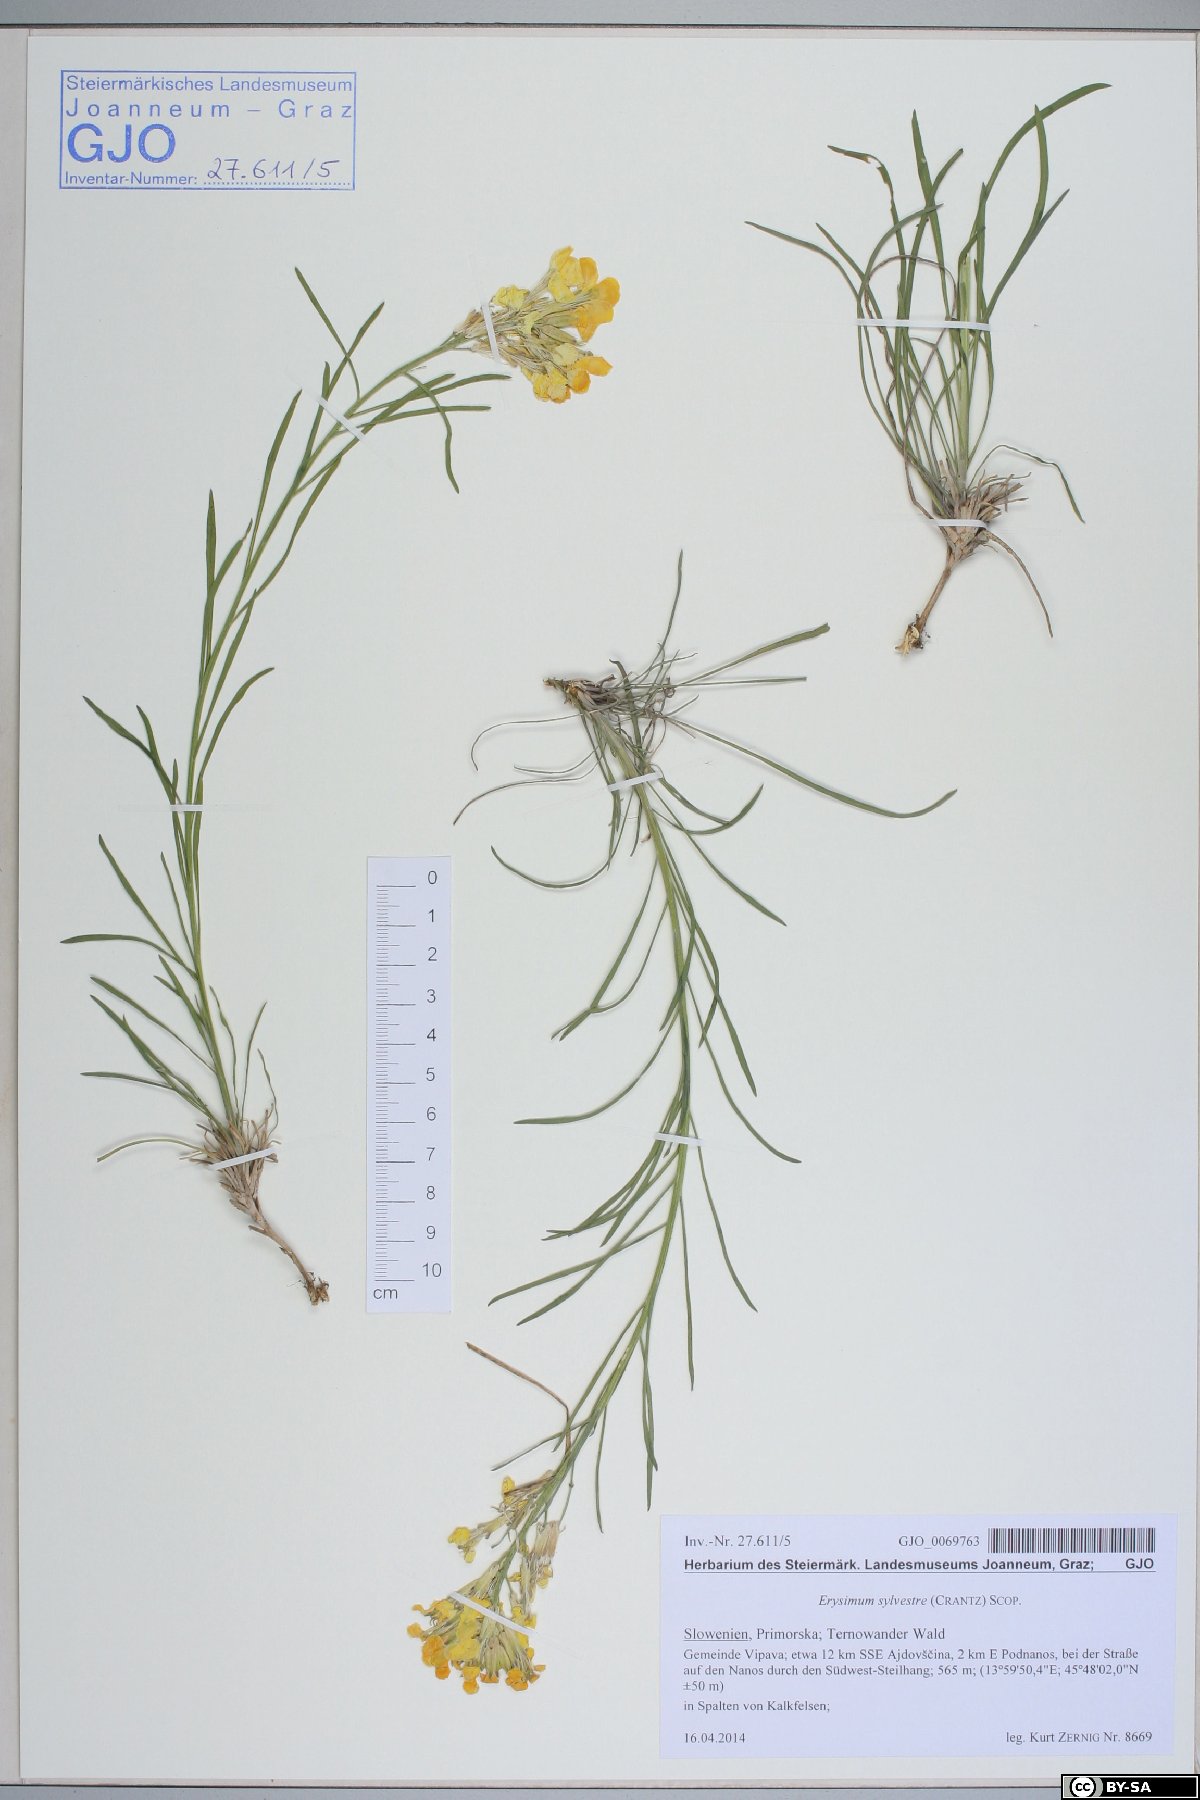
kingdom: Plantae
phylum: Tracheophyta
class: Magnoliopsida
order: Brassicales
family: Brassicaceae
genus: Erysimum
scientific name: Erysimum sylvestre
